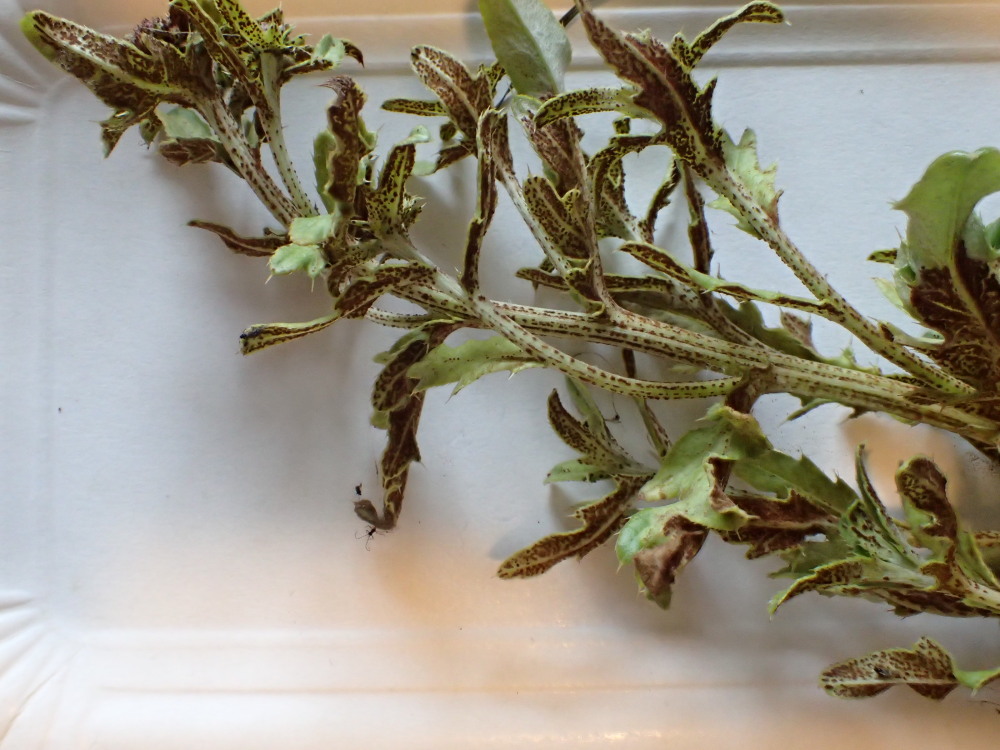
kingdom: Fungi
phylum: Basidiomycota
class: Pucciniomycetes
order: Pucciniales
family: Pucciniaceae
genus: Puccinia
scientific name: Puccinia suaveolens
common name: tidsel-tvecellerust
